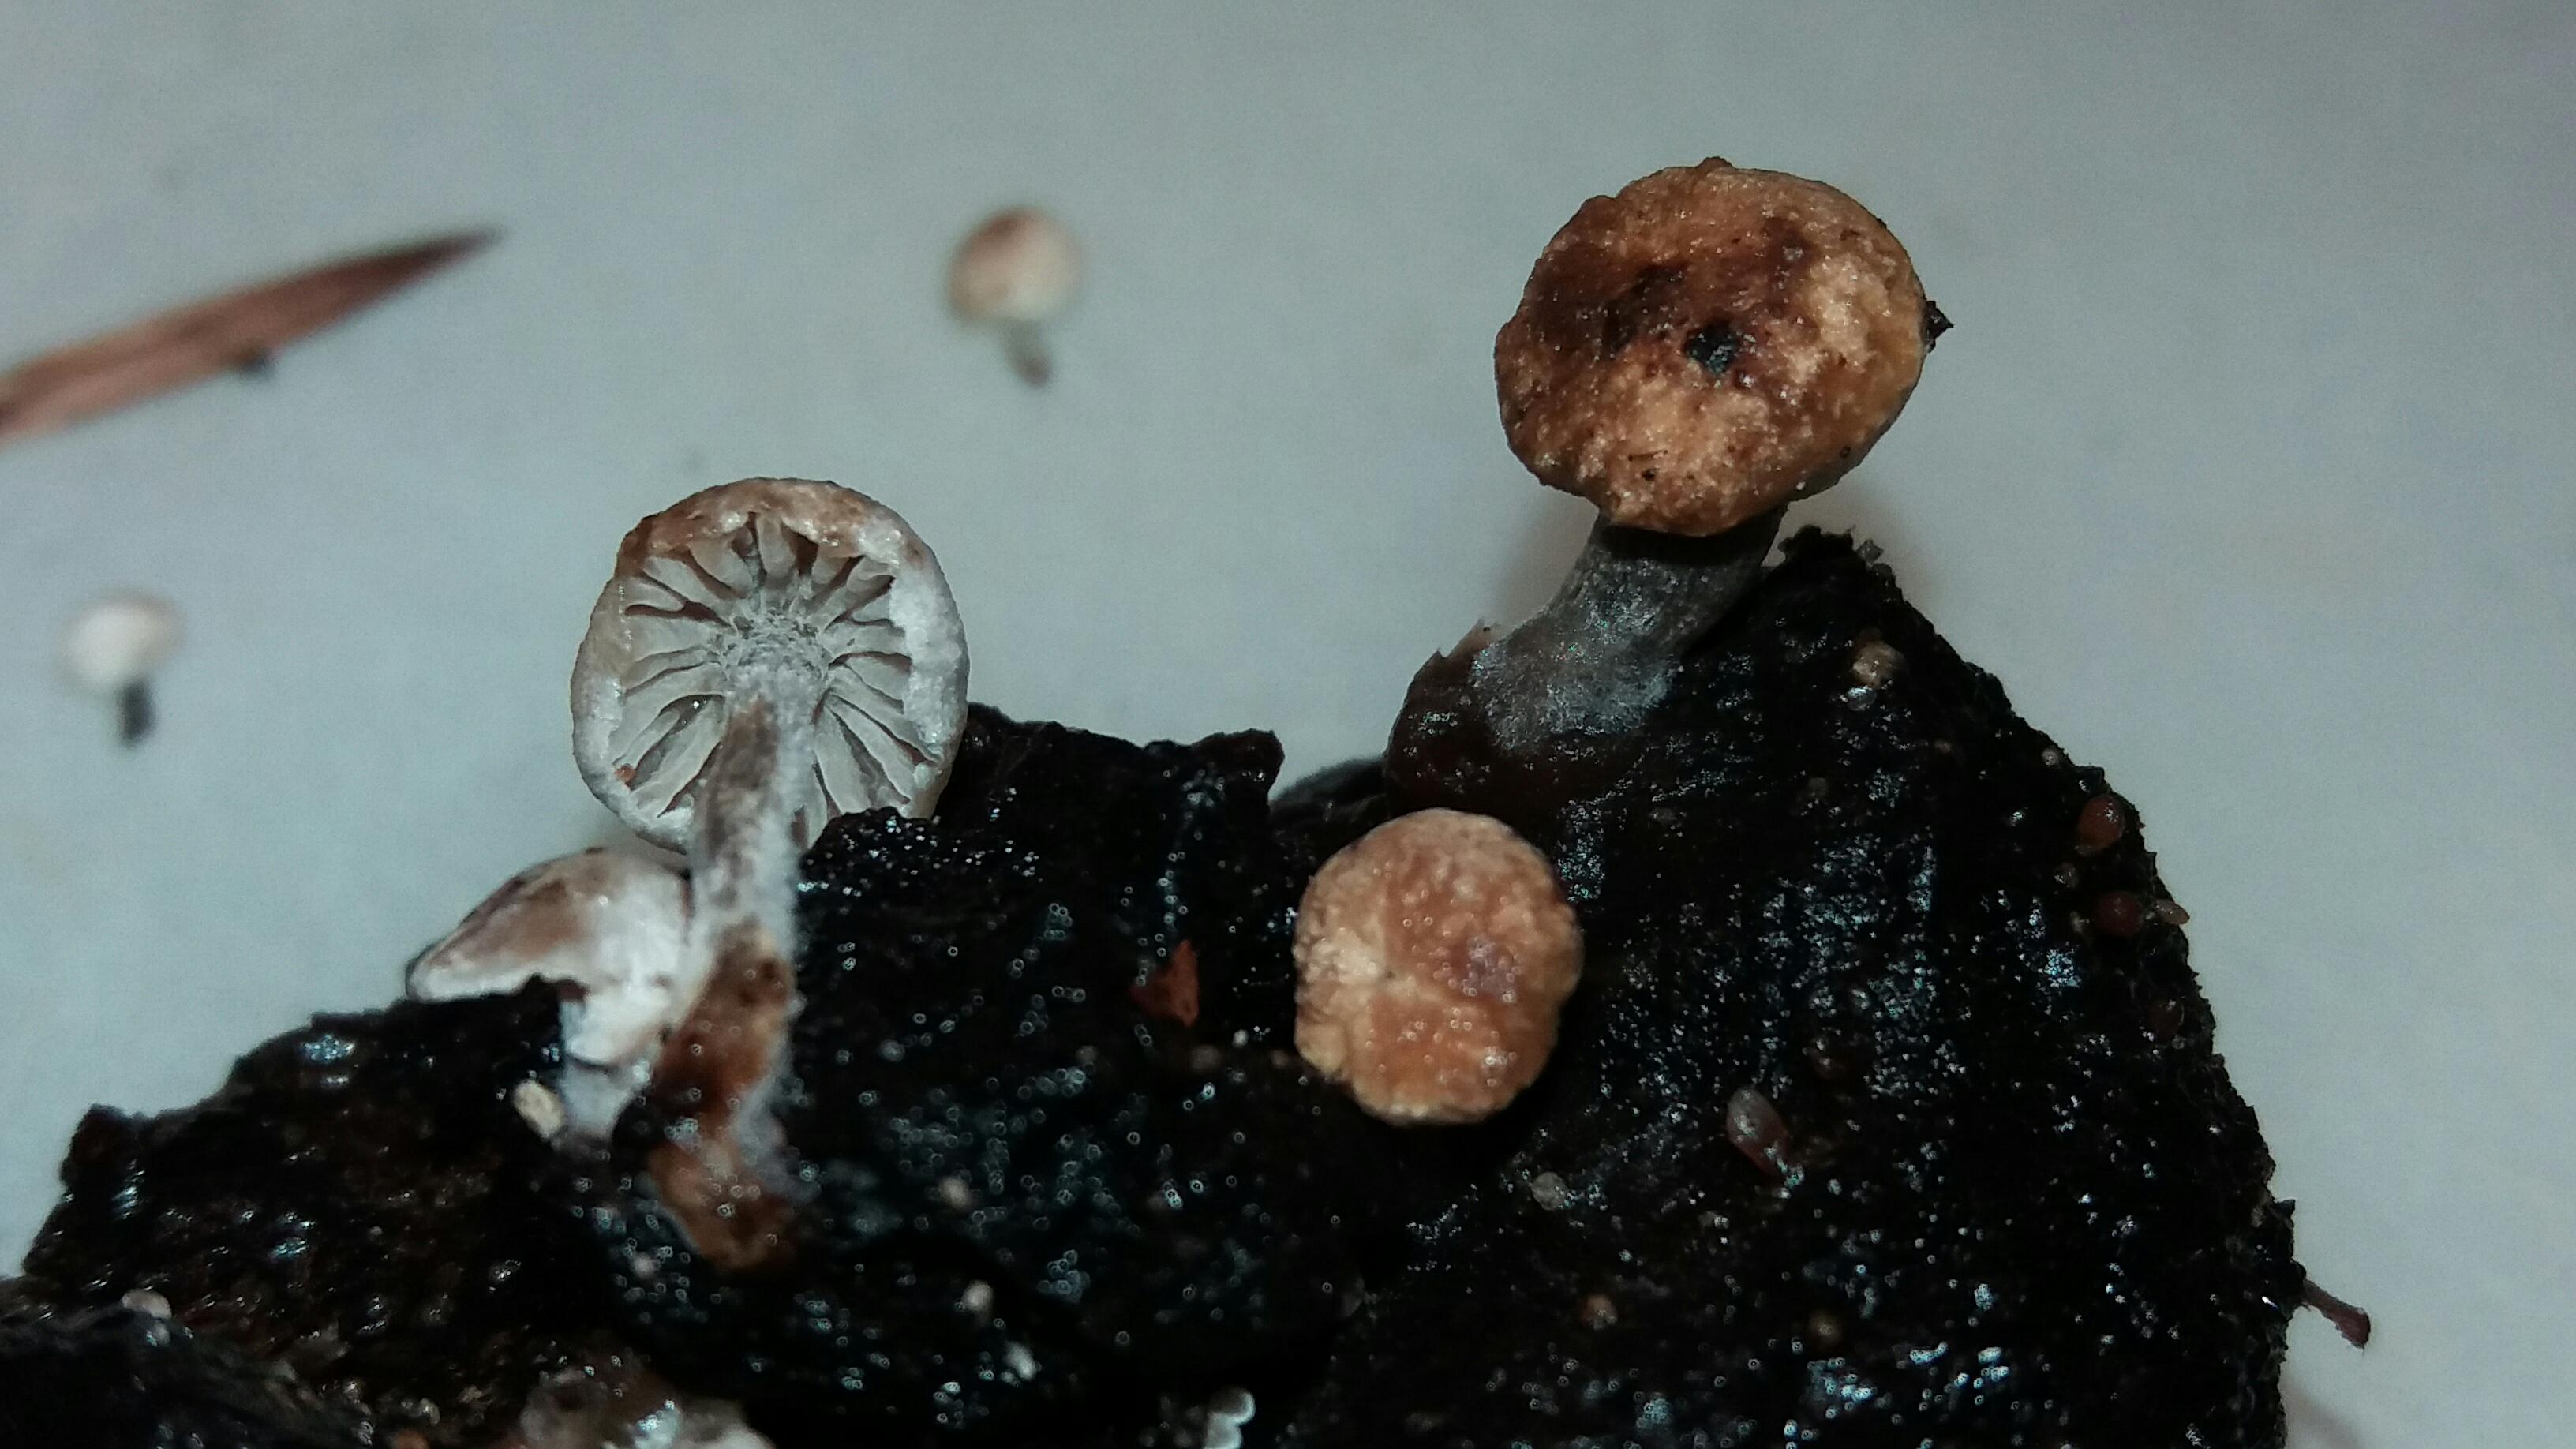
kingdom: Fungi
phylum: Basidiomycota
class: Agaricomycetes
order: Agaricales
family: Lyophyllaceae
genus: Asterophora
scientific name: Asterophora lycoperdoides
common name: brunpudret snyltehat
